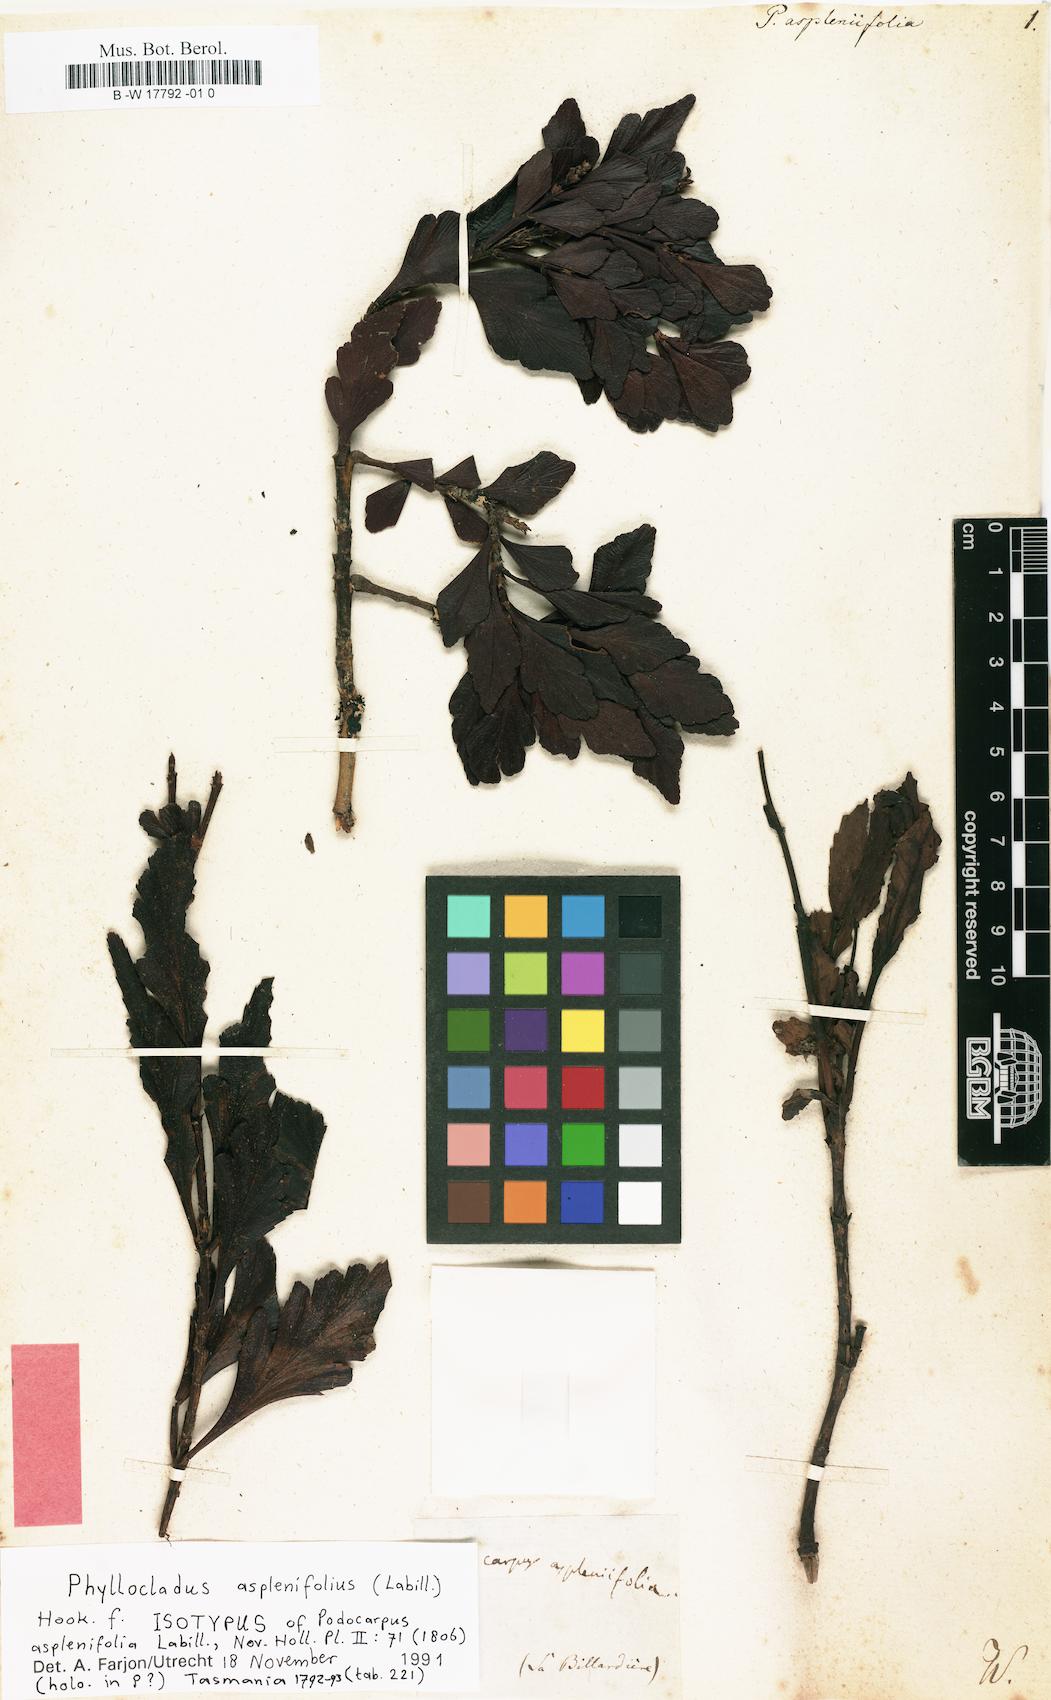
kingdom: Plantae
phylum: Tracheophyta
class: Pinopsida
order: Pinales
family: Phyllocladaceae
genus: Phyllocladus
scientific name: Phyllocladus aspleniifolius
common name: Celery-top pine
